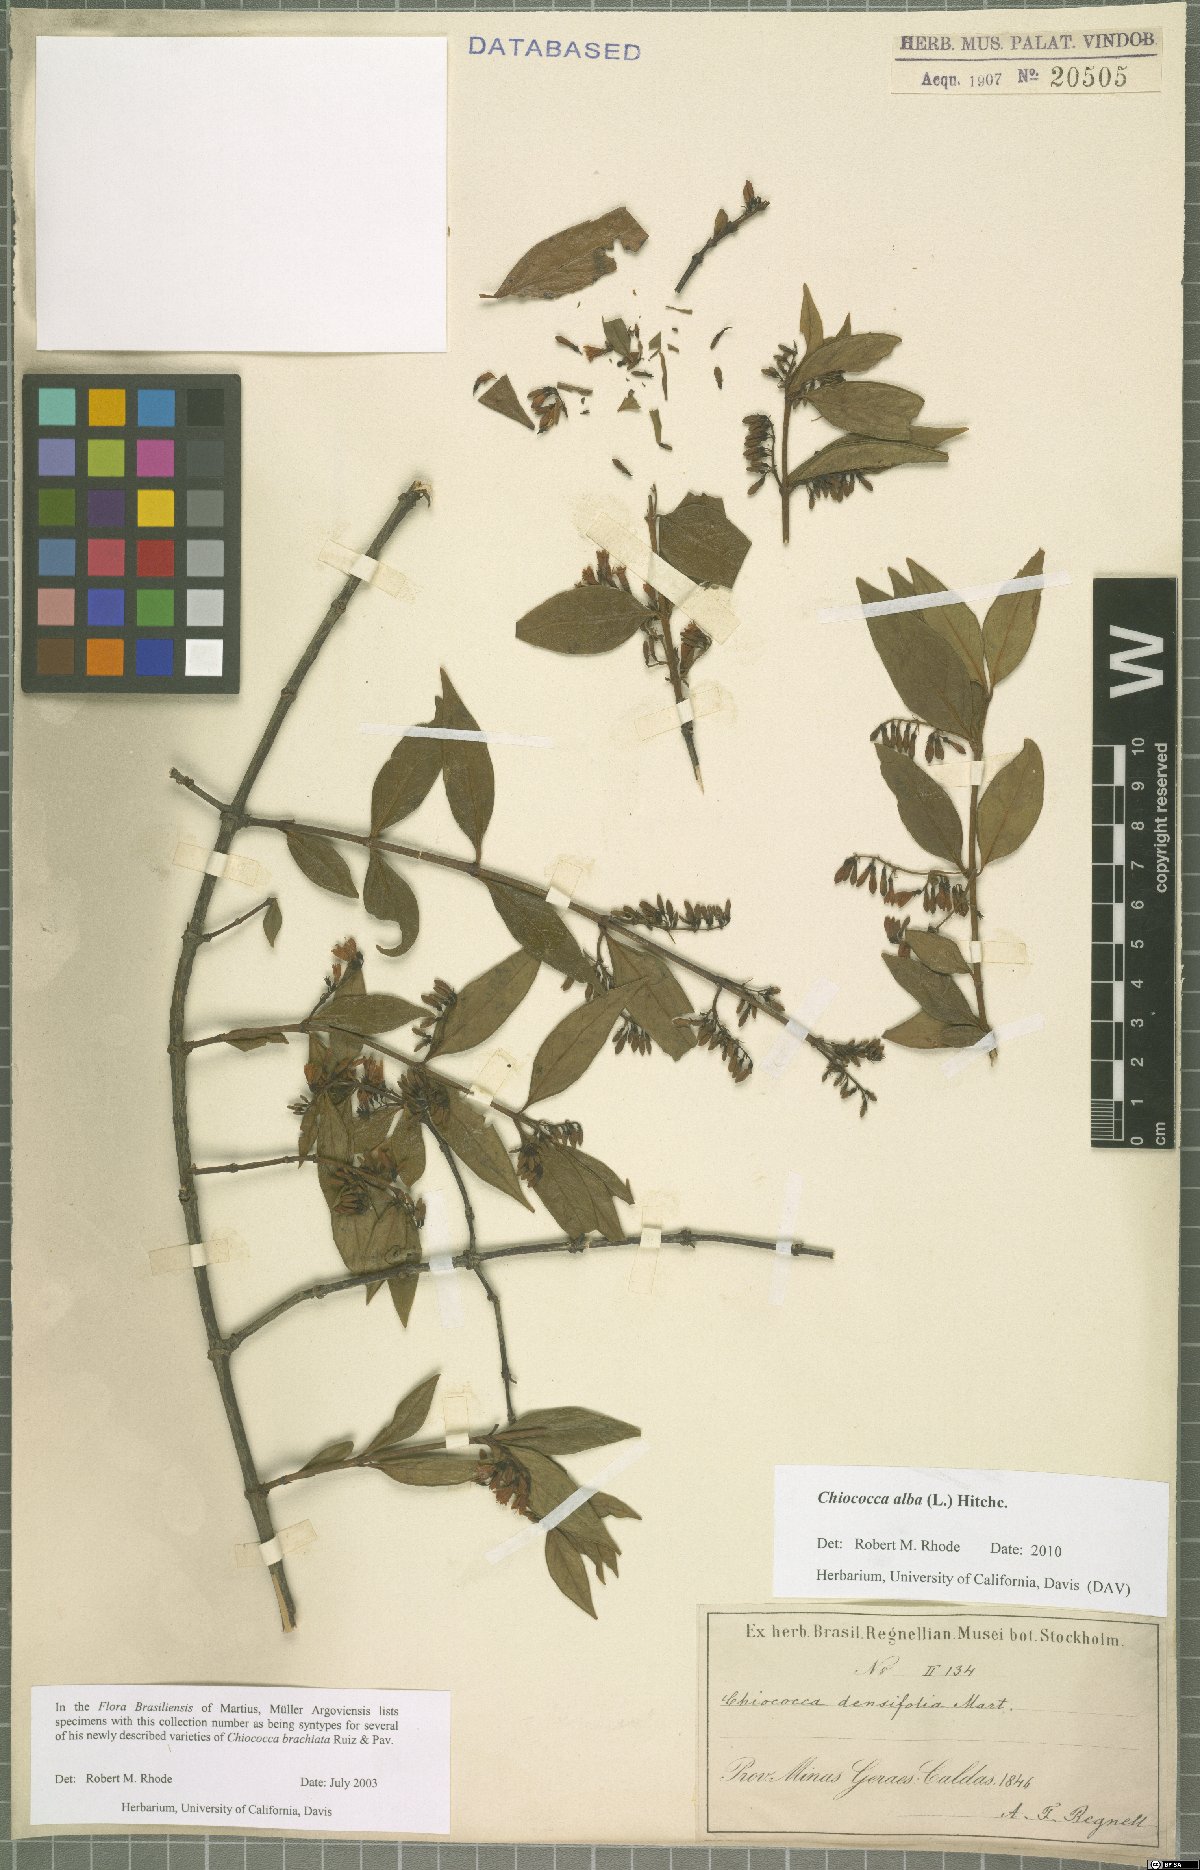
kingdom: Plantae
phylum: Tracheophyta
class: Magnoliopsida
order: Gentianales
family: Rubiaceae
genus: Chiococca
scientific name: Chiococca alba
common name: Snowberry
